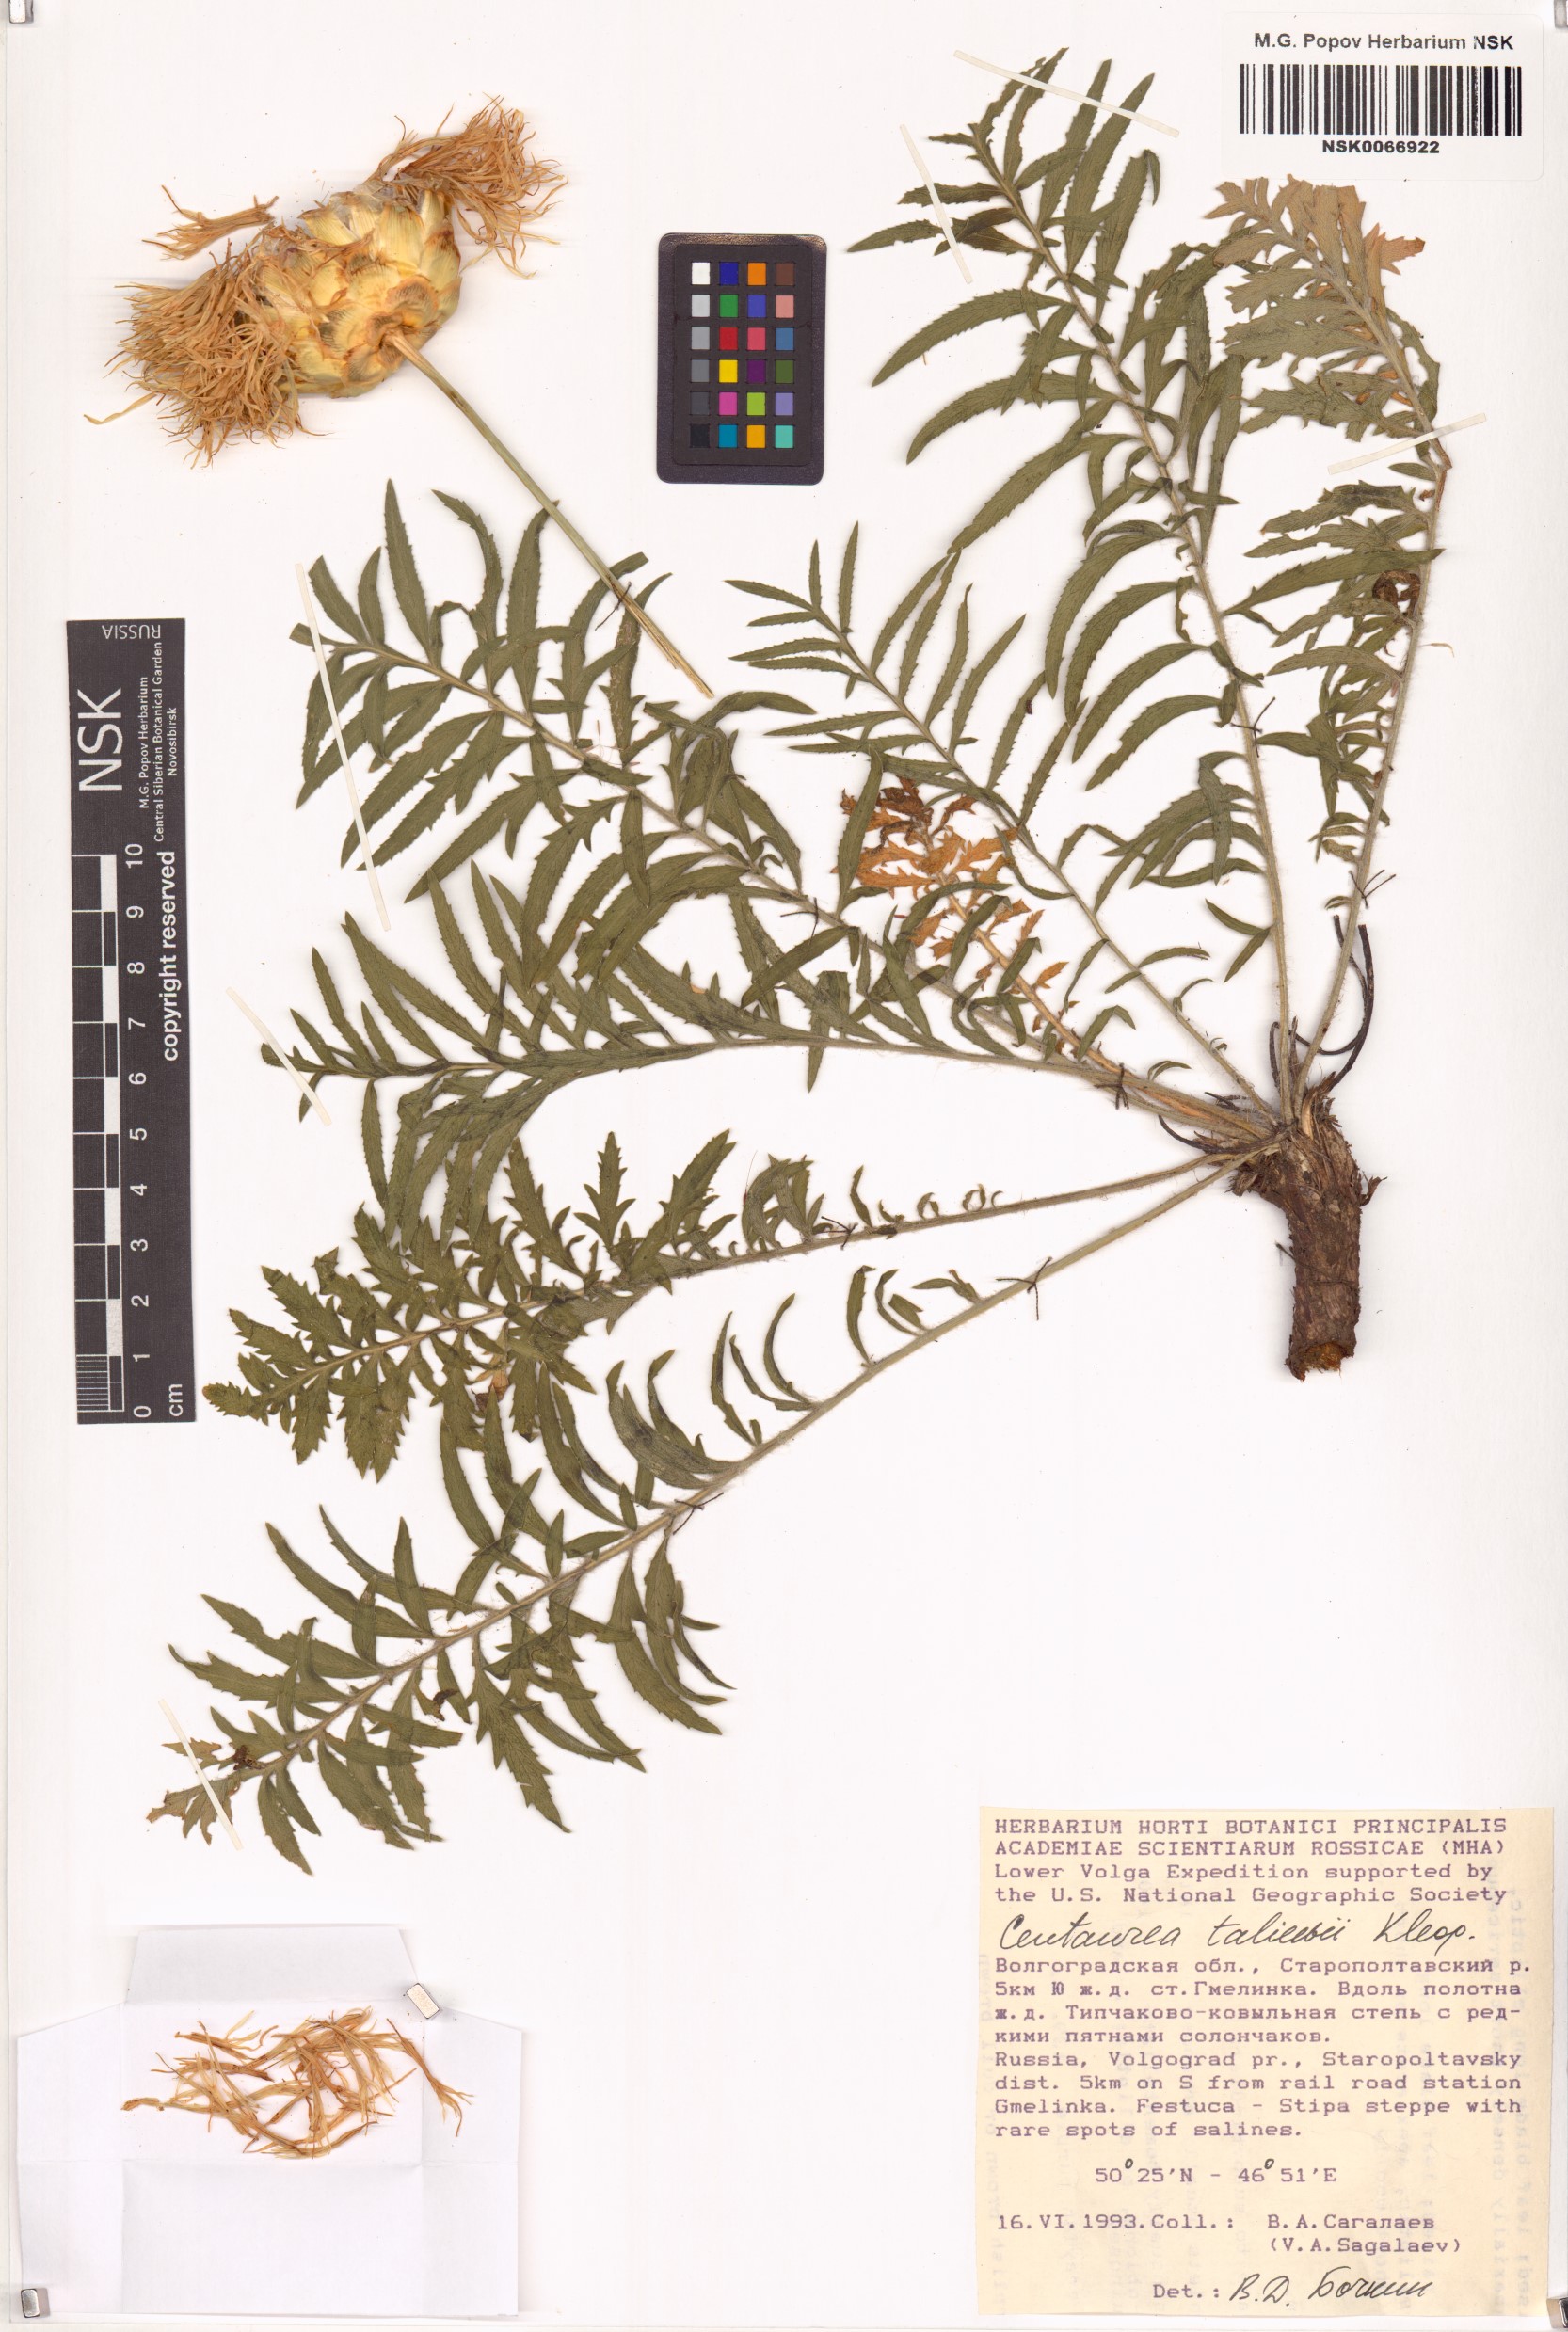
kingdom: Plantae
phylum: Tracheophyta
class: Magnoliopsida
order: Asterales
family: Asteraceae
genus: Rhaponticoides
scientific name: Rhaponticoides taliewii
